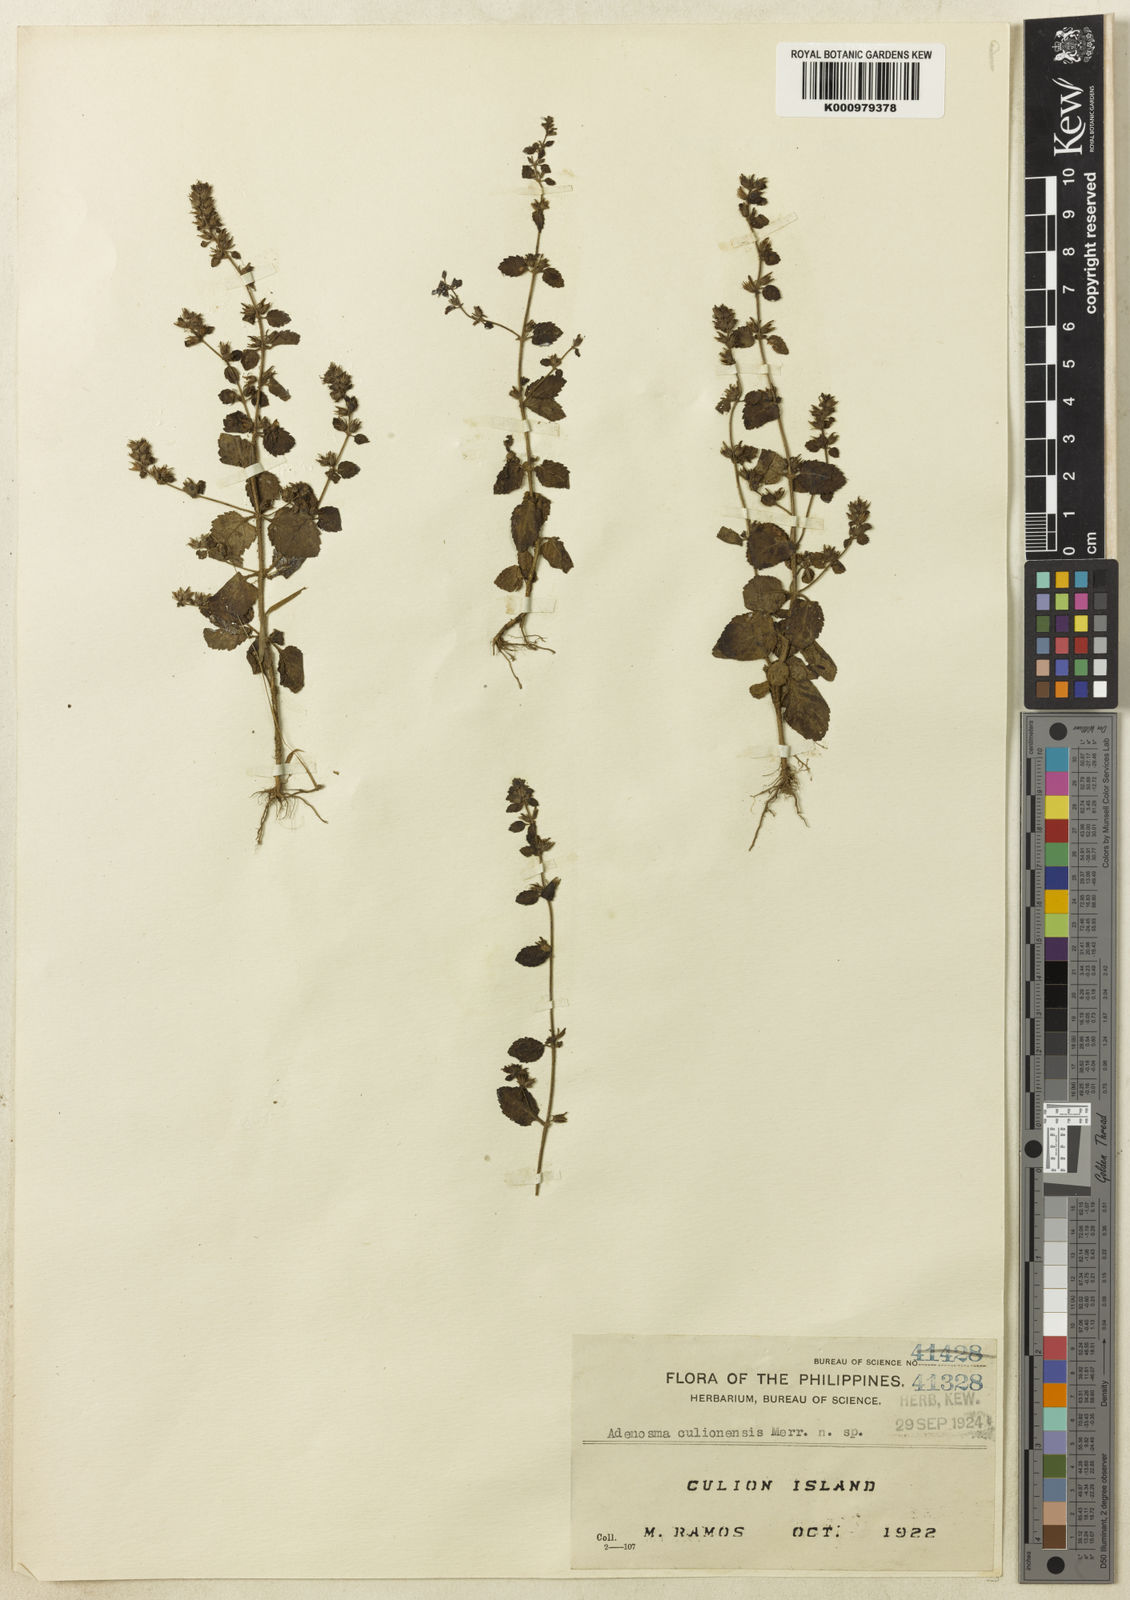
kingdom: Plantae
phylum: Tracheophyta
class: Magnoliopsida
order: Lamiales
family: Plantaginaceae
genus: Adenosma
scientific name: Adenosma
